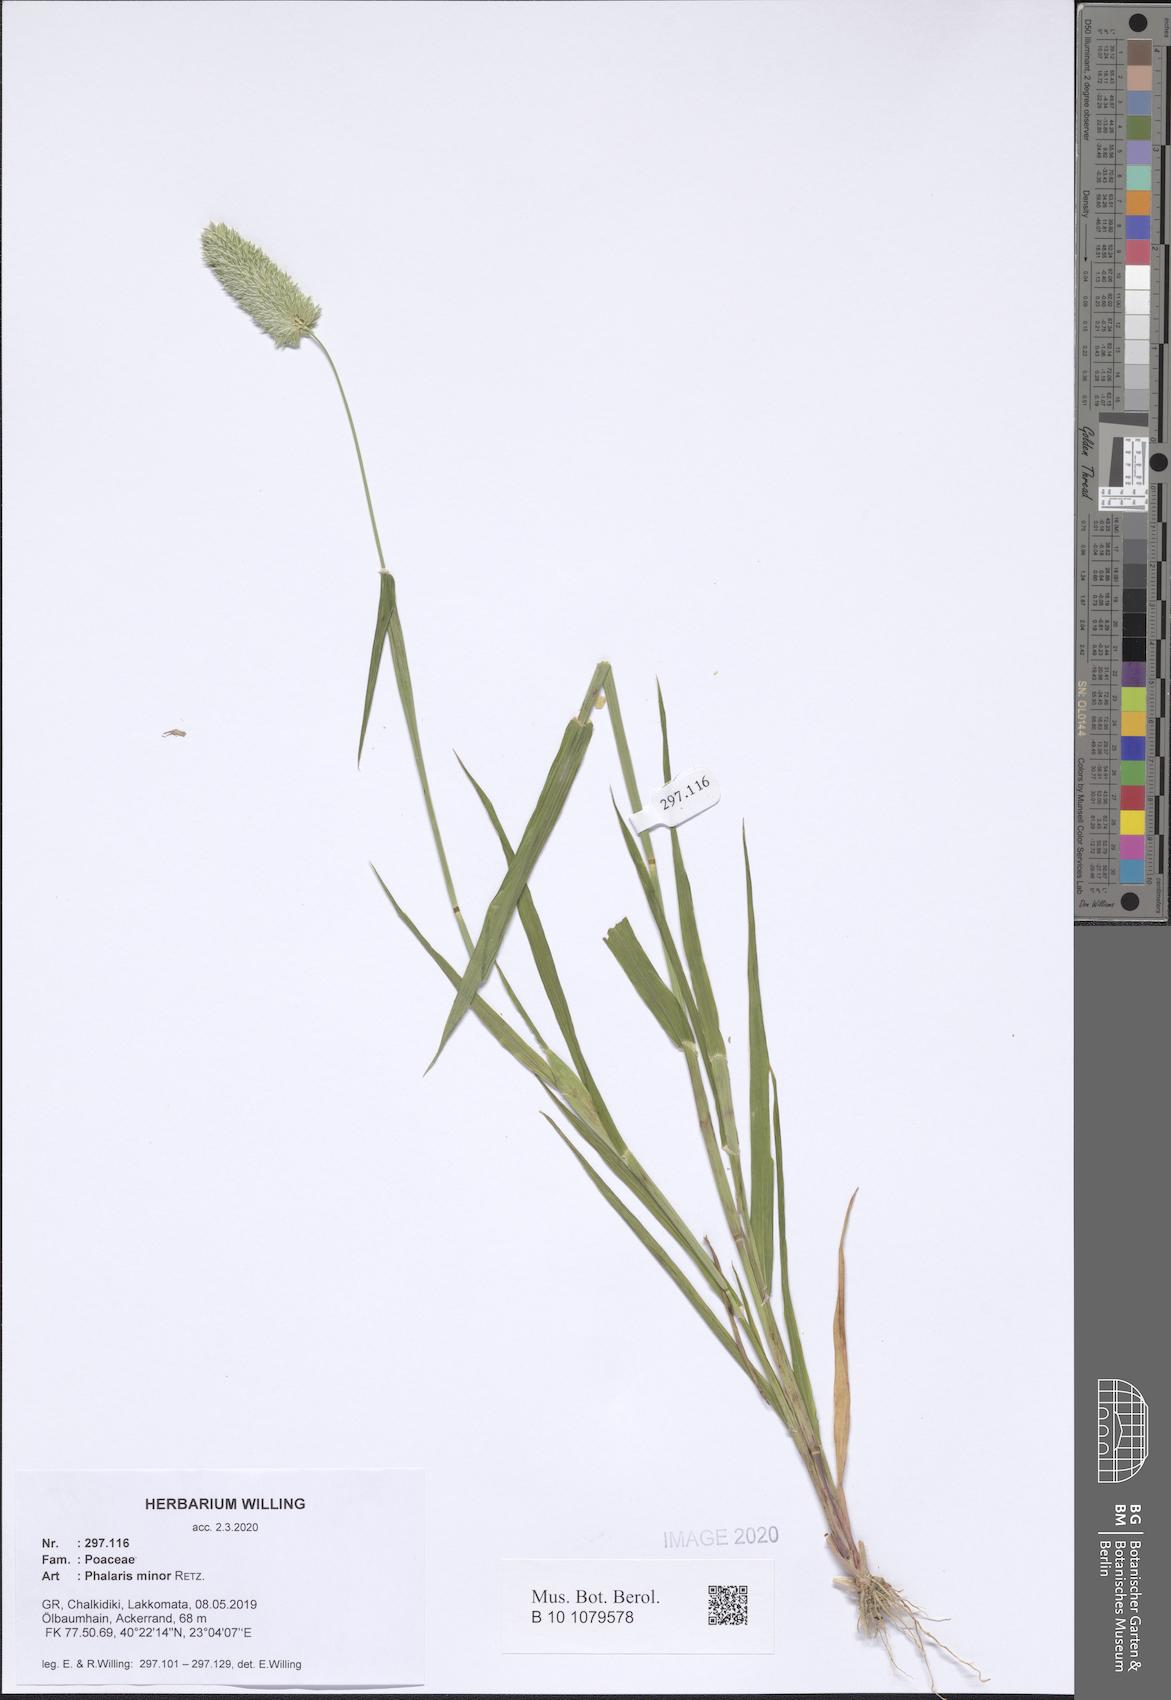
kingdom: Plantae
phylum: Tracheophyta
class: Liliopsida
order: Poales
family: Poaceae
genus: Phalaris
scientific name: Phalaris minor
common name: Littleseed canarygrass
